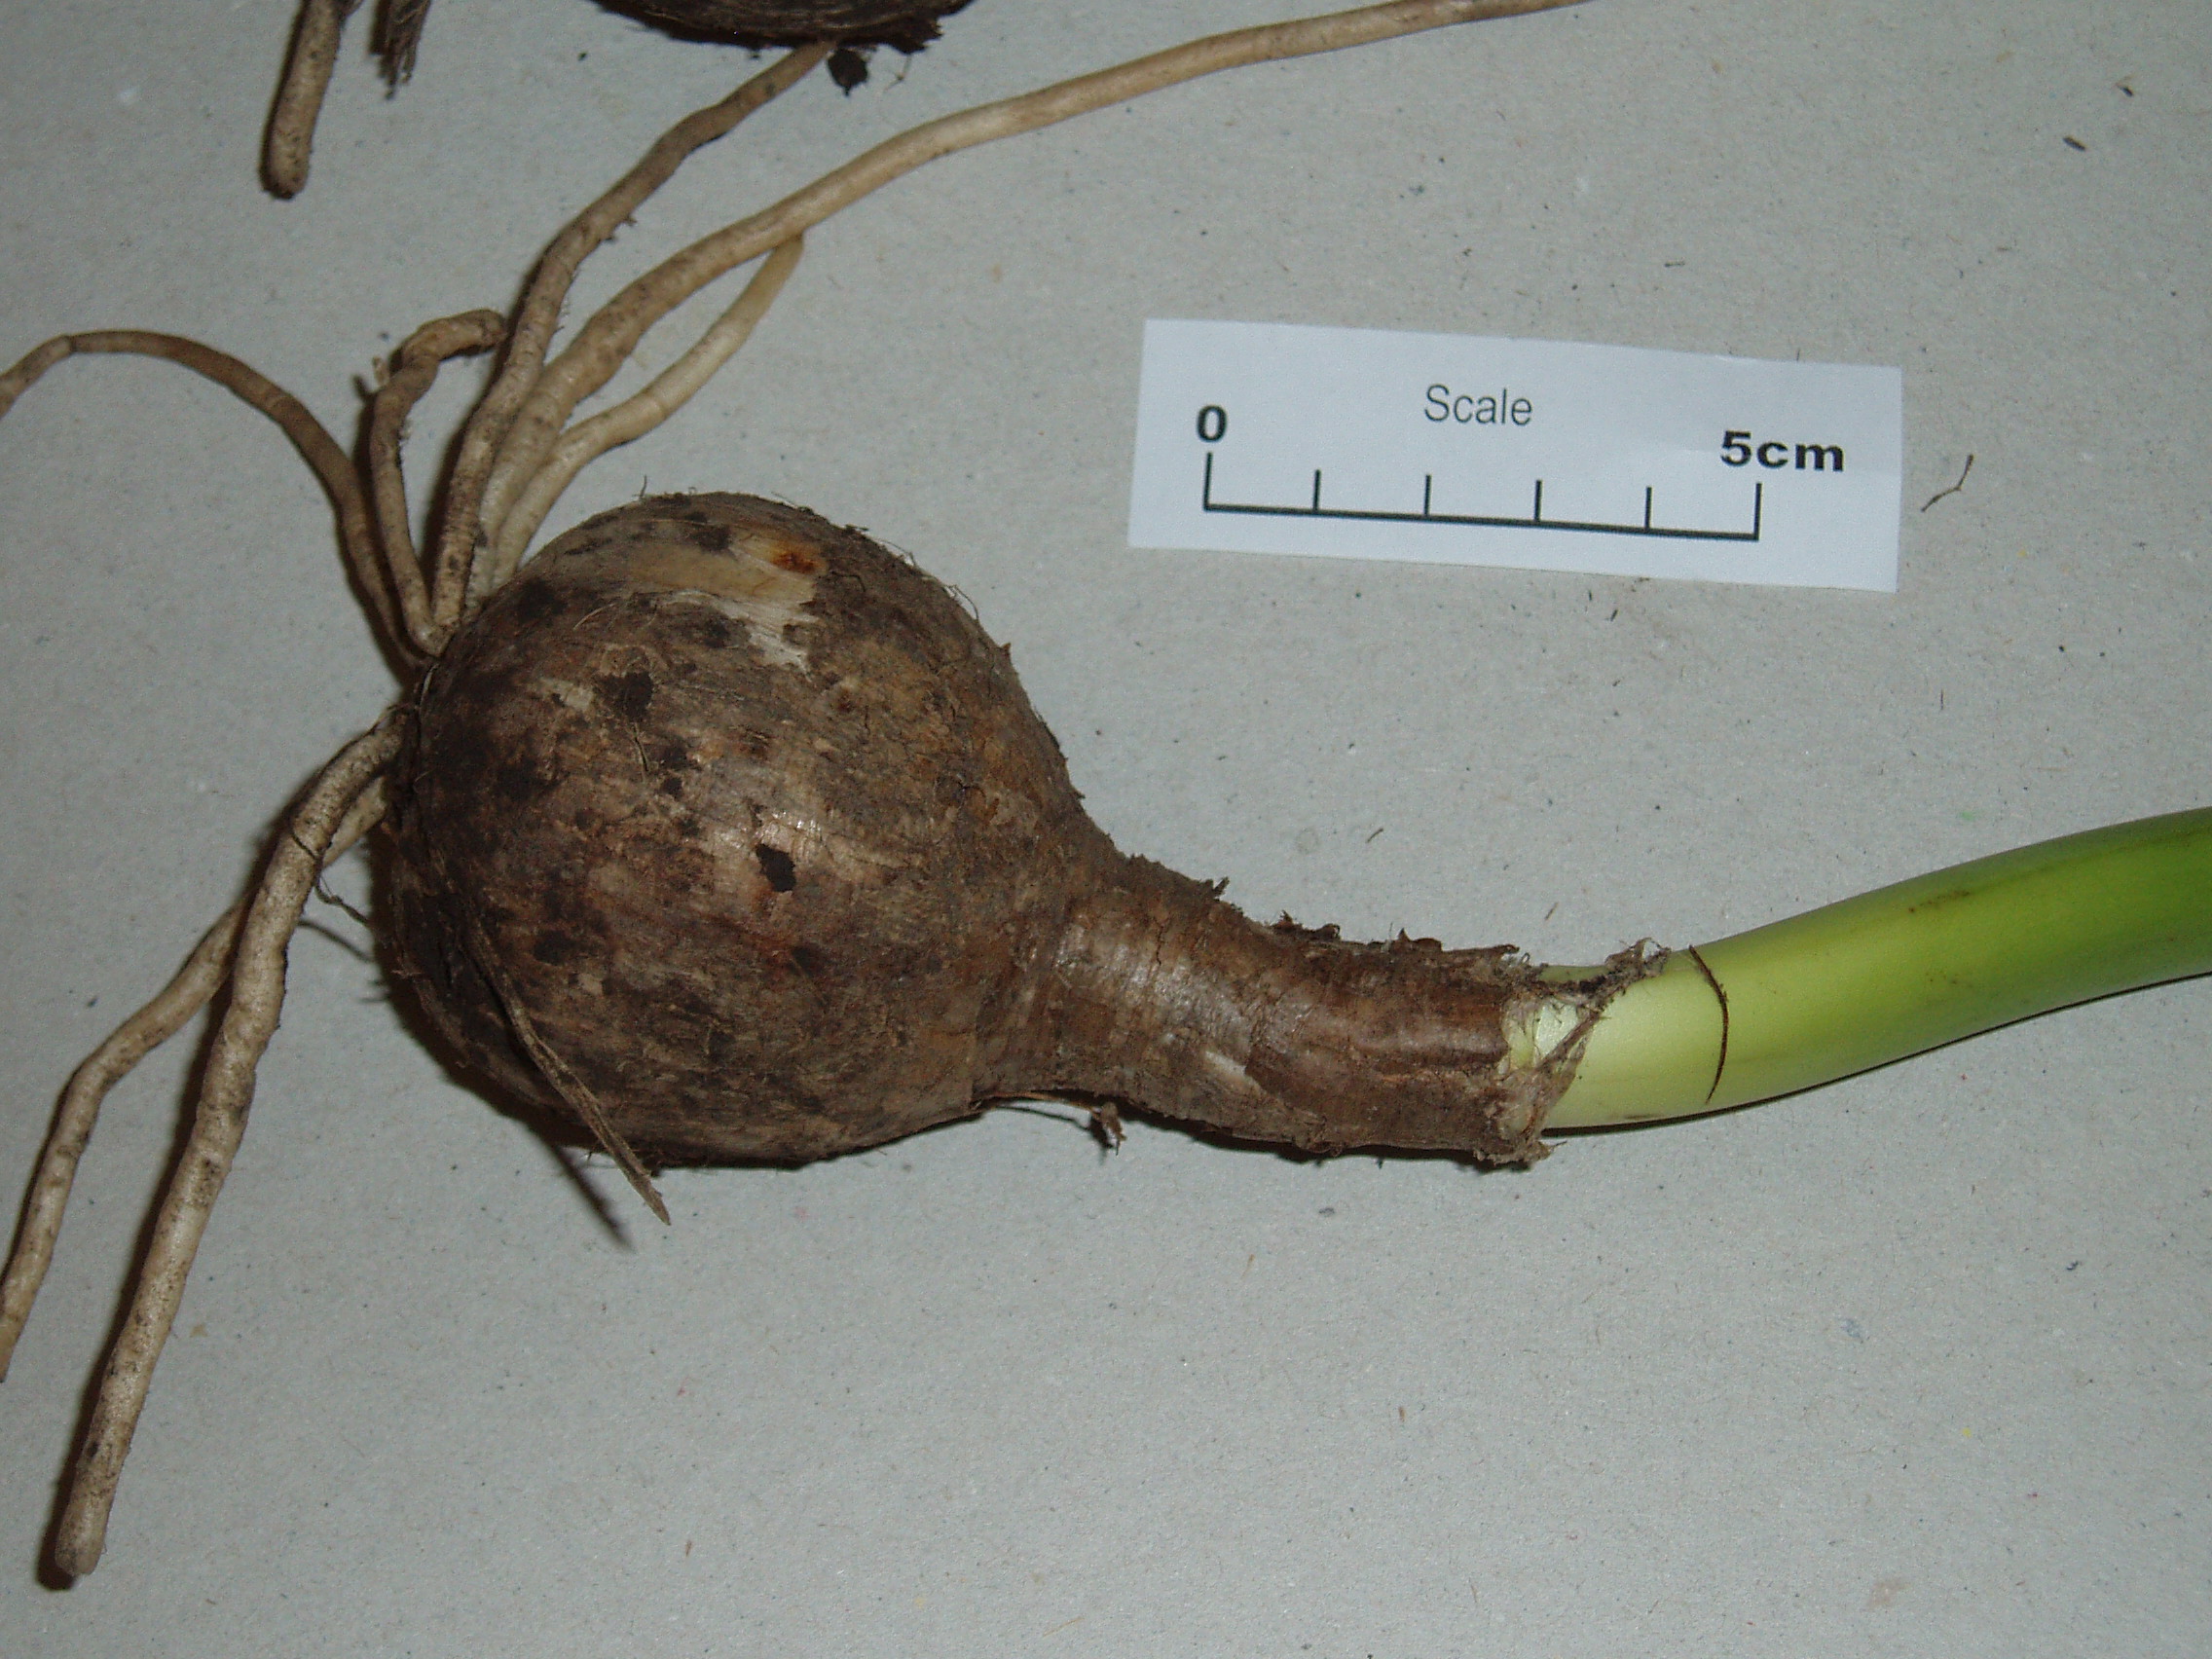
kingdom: Plantae
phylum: Tracheophyta
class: Liliopsida
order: Asparagales
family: Amaryllidaceae
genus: Amaryllis
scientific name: Amaryllis belladonna
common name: Jersey lily
